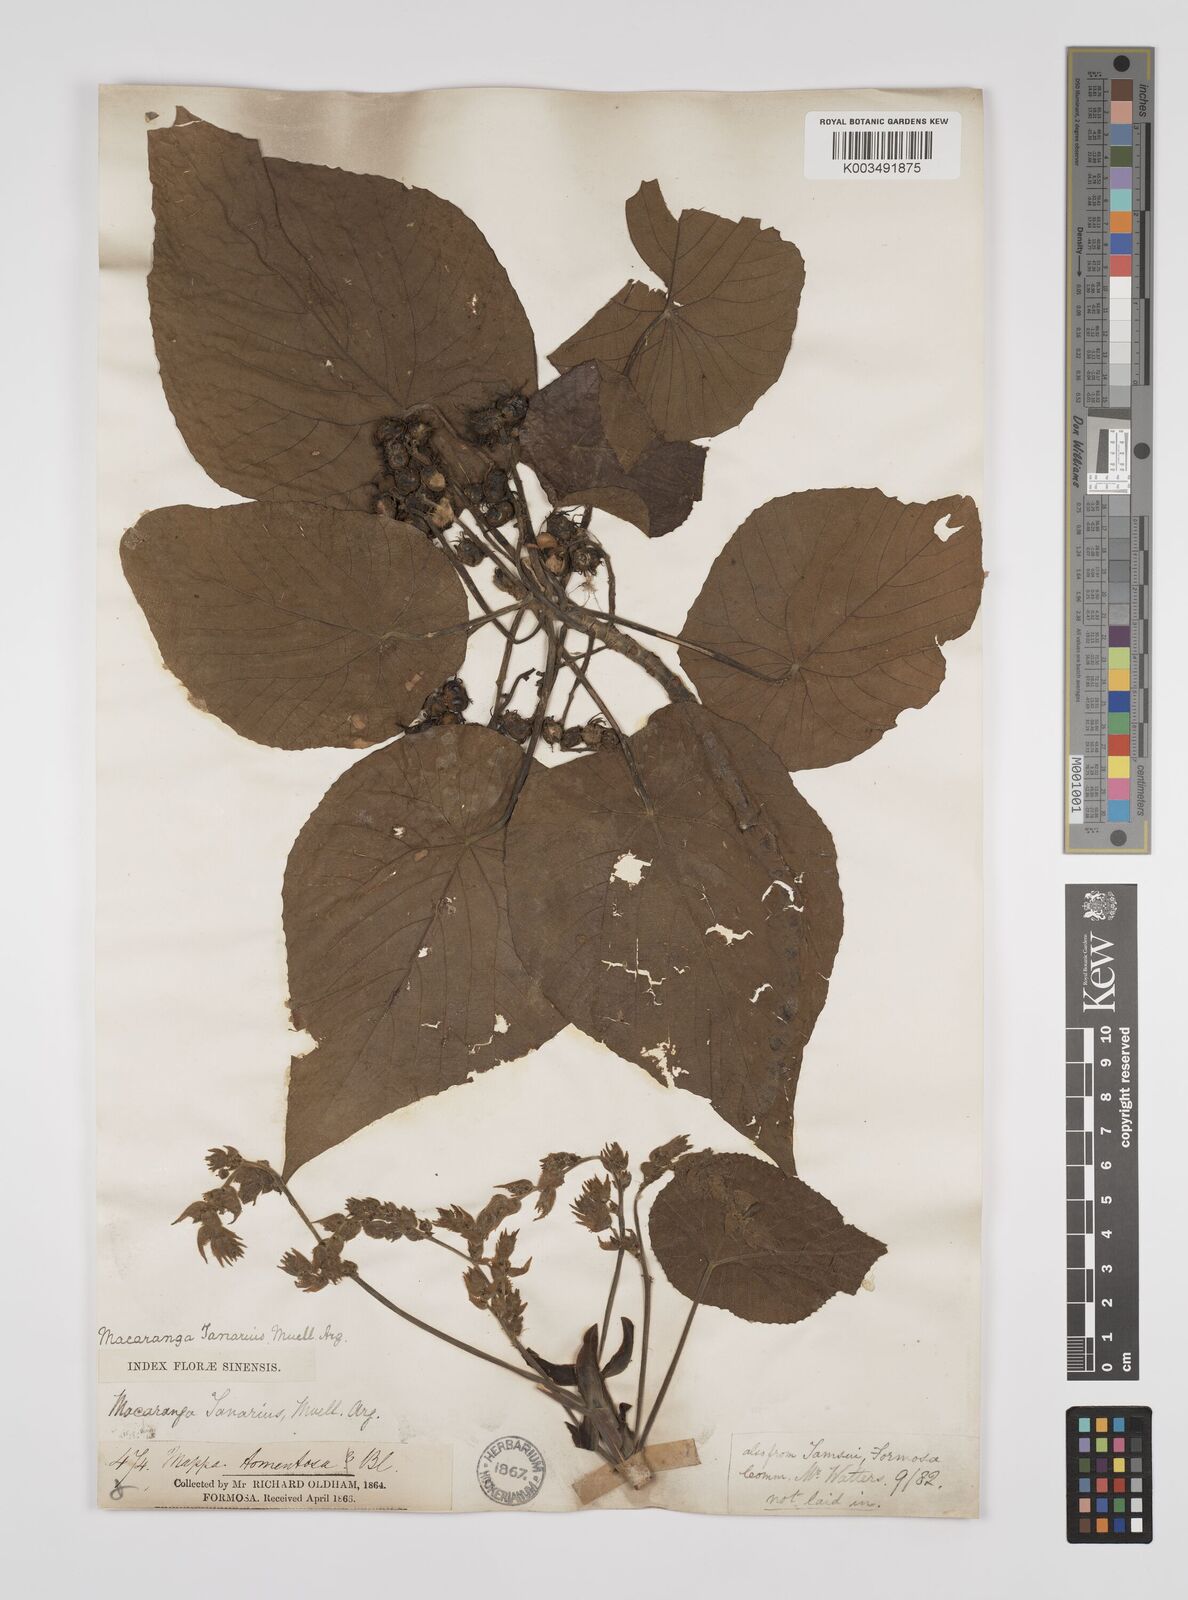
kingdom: Plantae
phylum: Tracheophyta
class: Magnoliopsida
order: Malpighiales
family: Euphorbiaceae
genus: Macaranga
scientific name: Macaranga tanarius
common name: Parasol leaf tree
